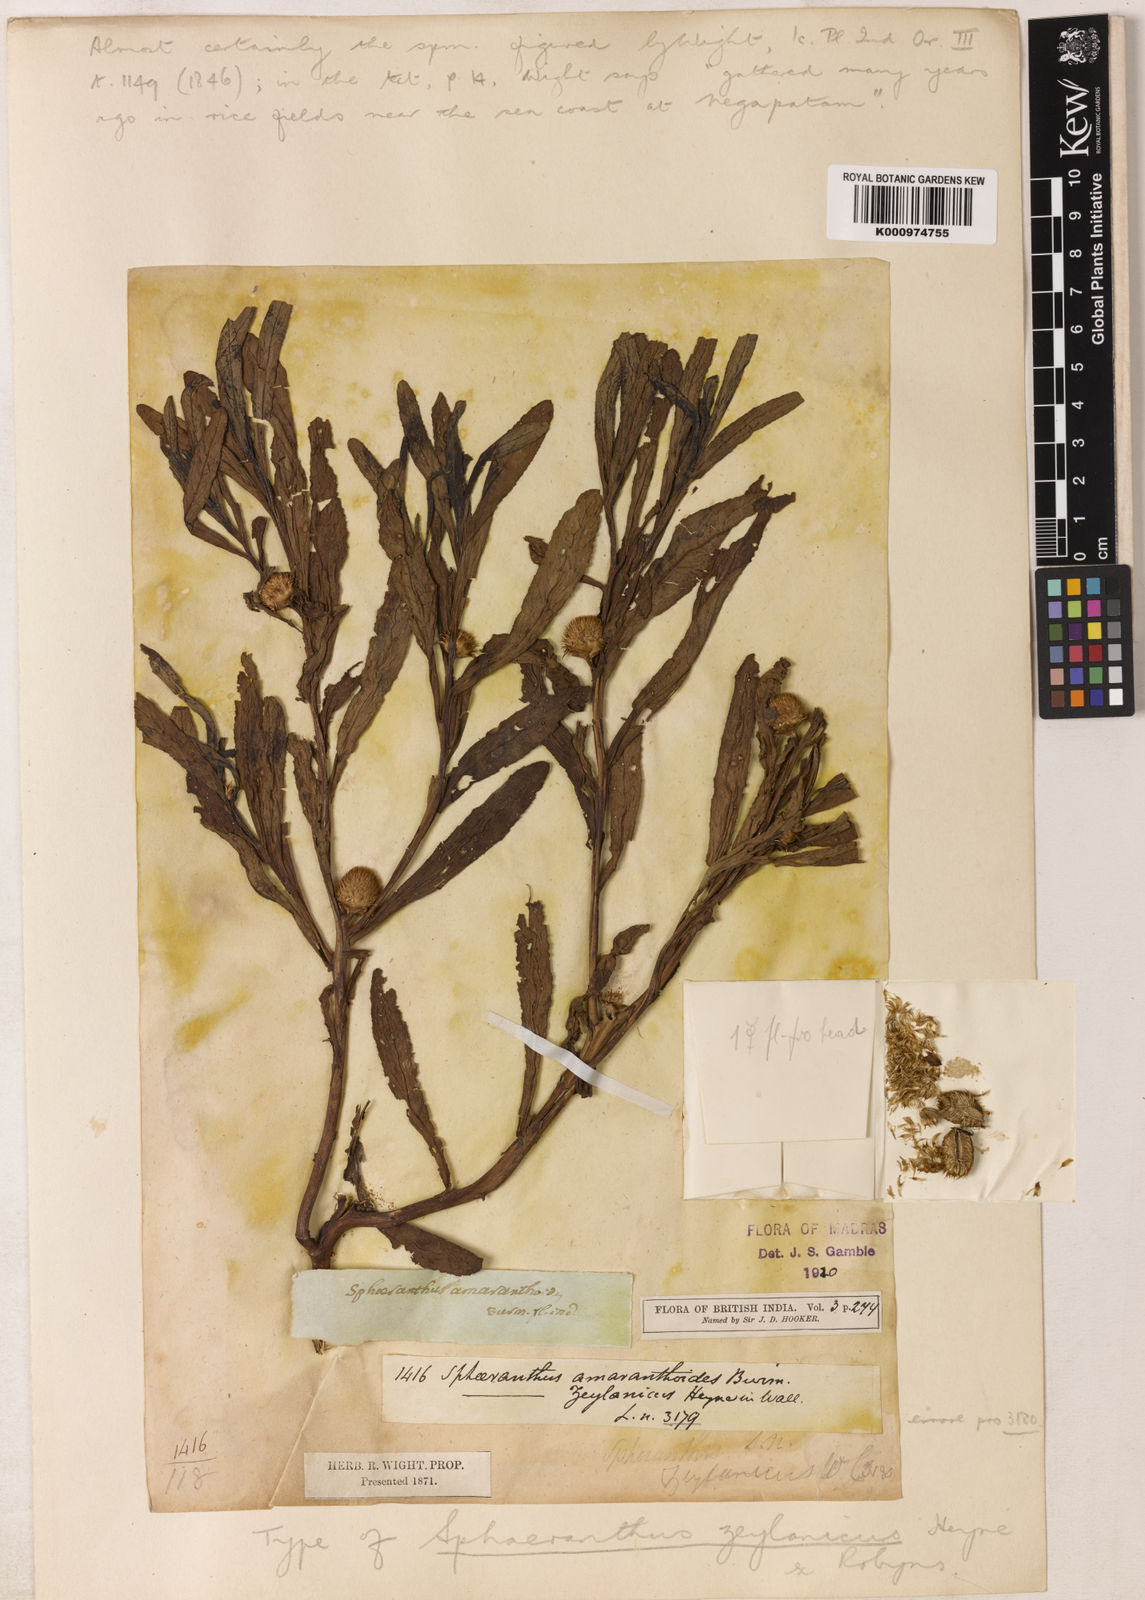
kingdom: Plantae
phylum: Tracheophyta
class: Magnoliopsida
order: Asterales
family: Asteraceae
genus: Sphaeranthus
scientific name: Sphaeranthus amaranthoides
